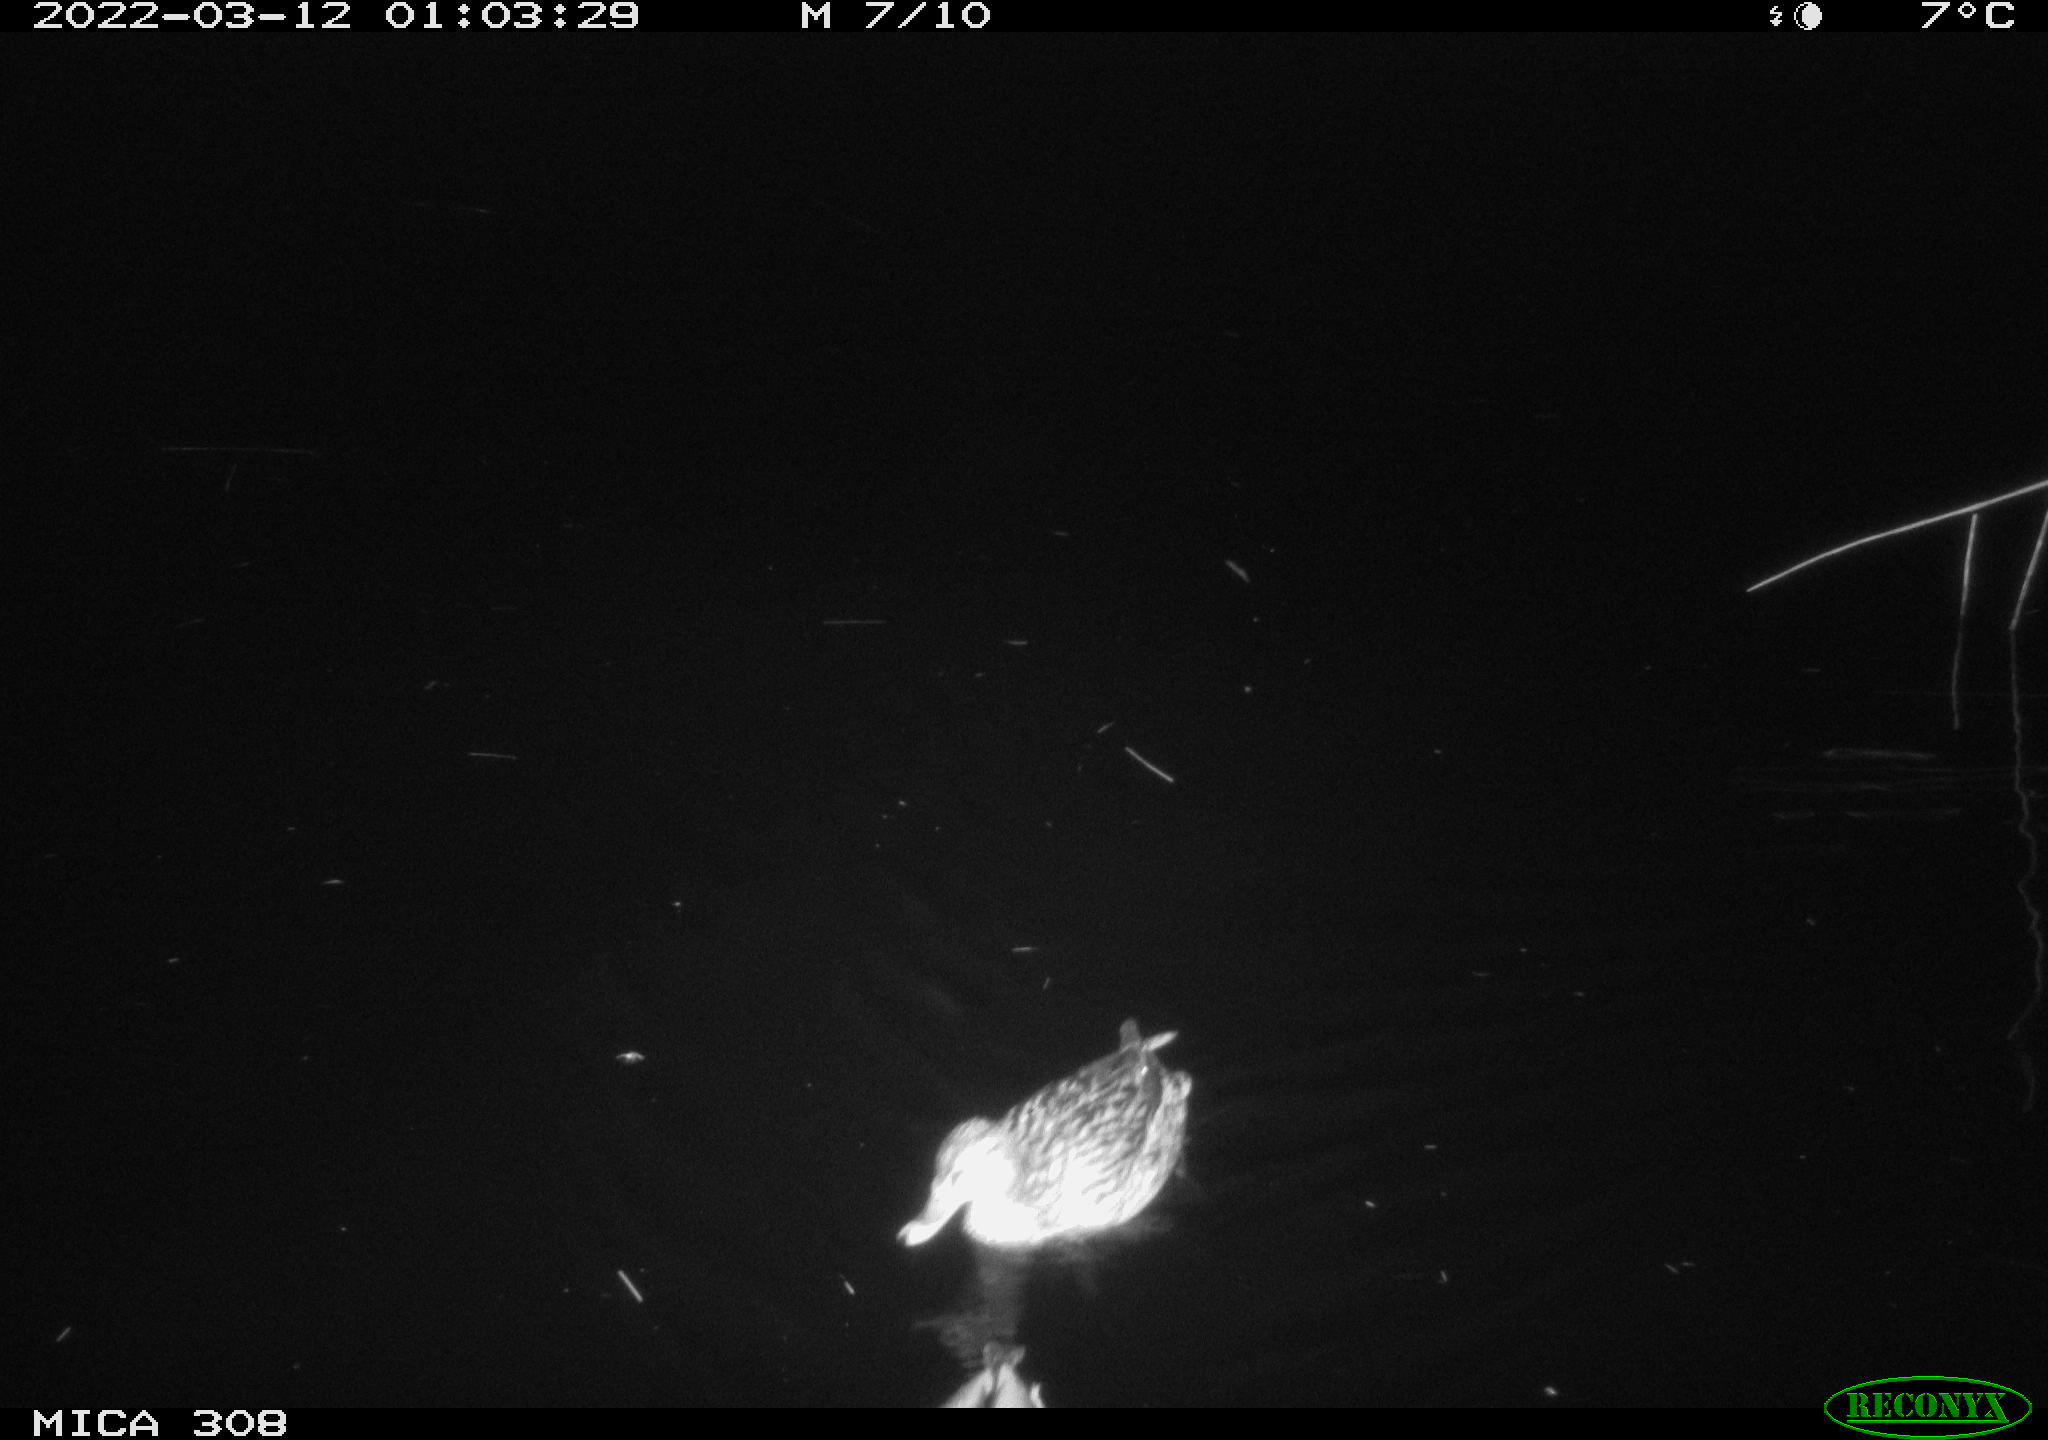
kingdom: Animalia
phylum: Chordata
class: Aves
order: Anseriformes
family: Anatidae
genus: Anas
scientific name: Anas platyrhynchos
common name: Mallard
